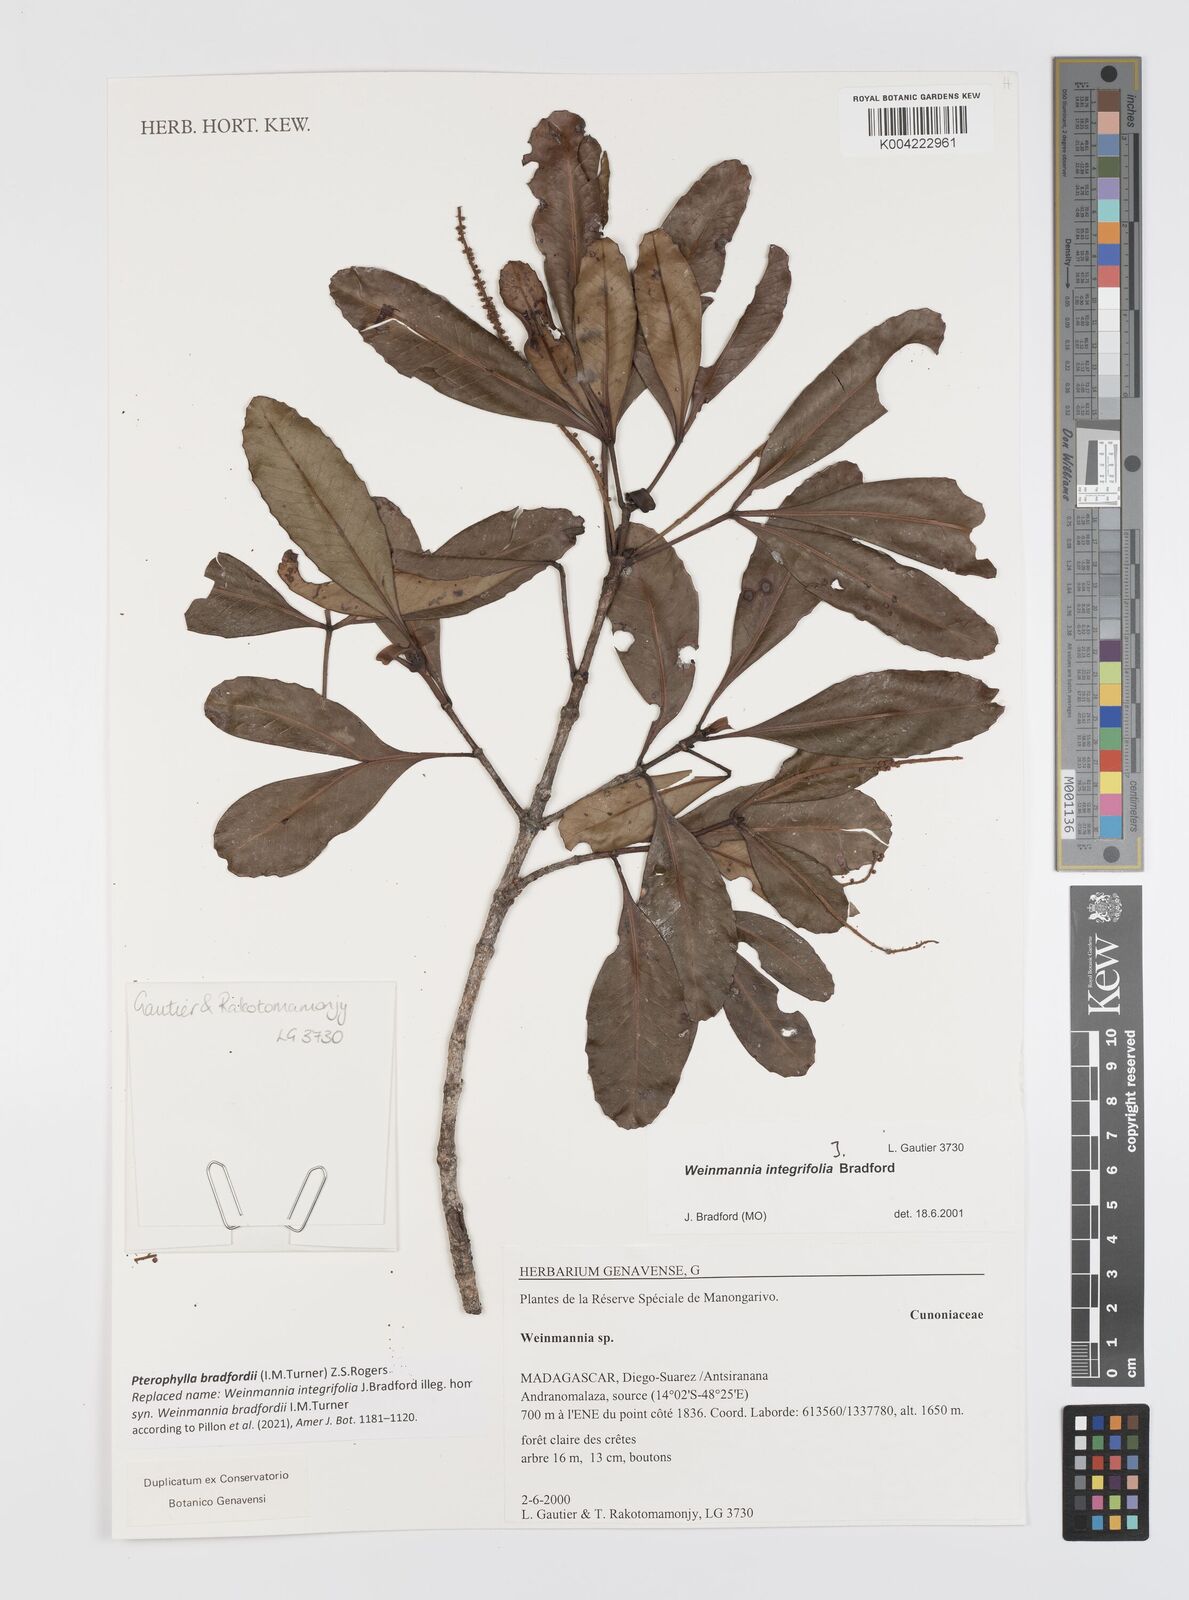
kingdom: Plantae
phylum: Tracheophyta
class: Magnoliopsida
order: Oxalidales
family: Cunoniaceae
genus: Pterophylla
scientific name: Pterophylla bradfordii
